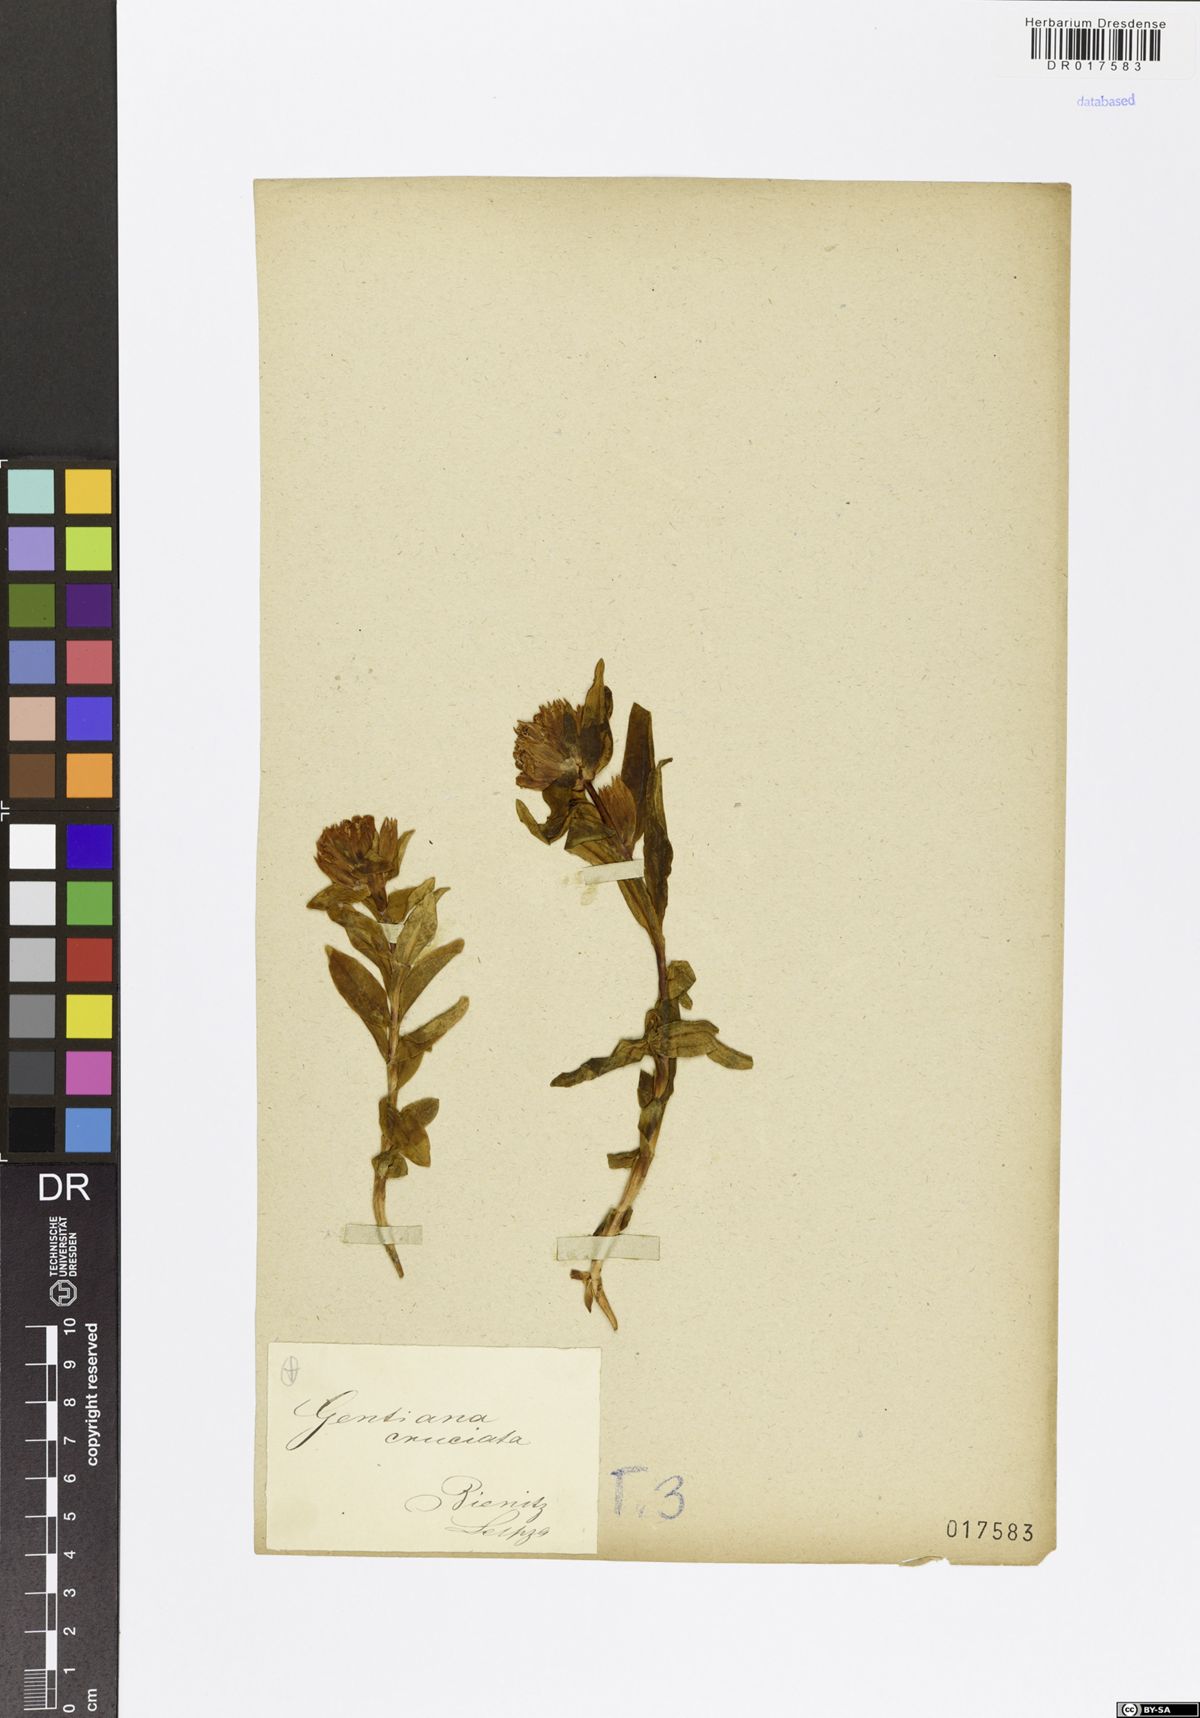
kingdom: Plantae
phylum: Tracheophyta
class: Magnoliopsida
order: Gentianales
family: Gentianaceae
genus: Gentiana
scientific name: Gentiana cruciata
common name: Cross gentian
